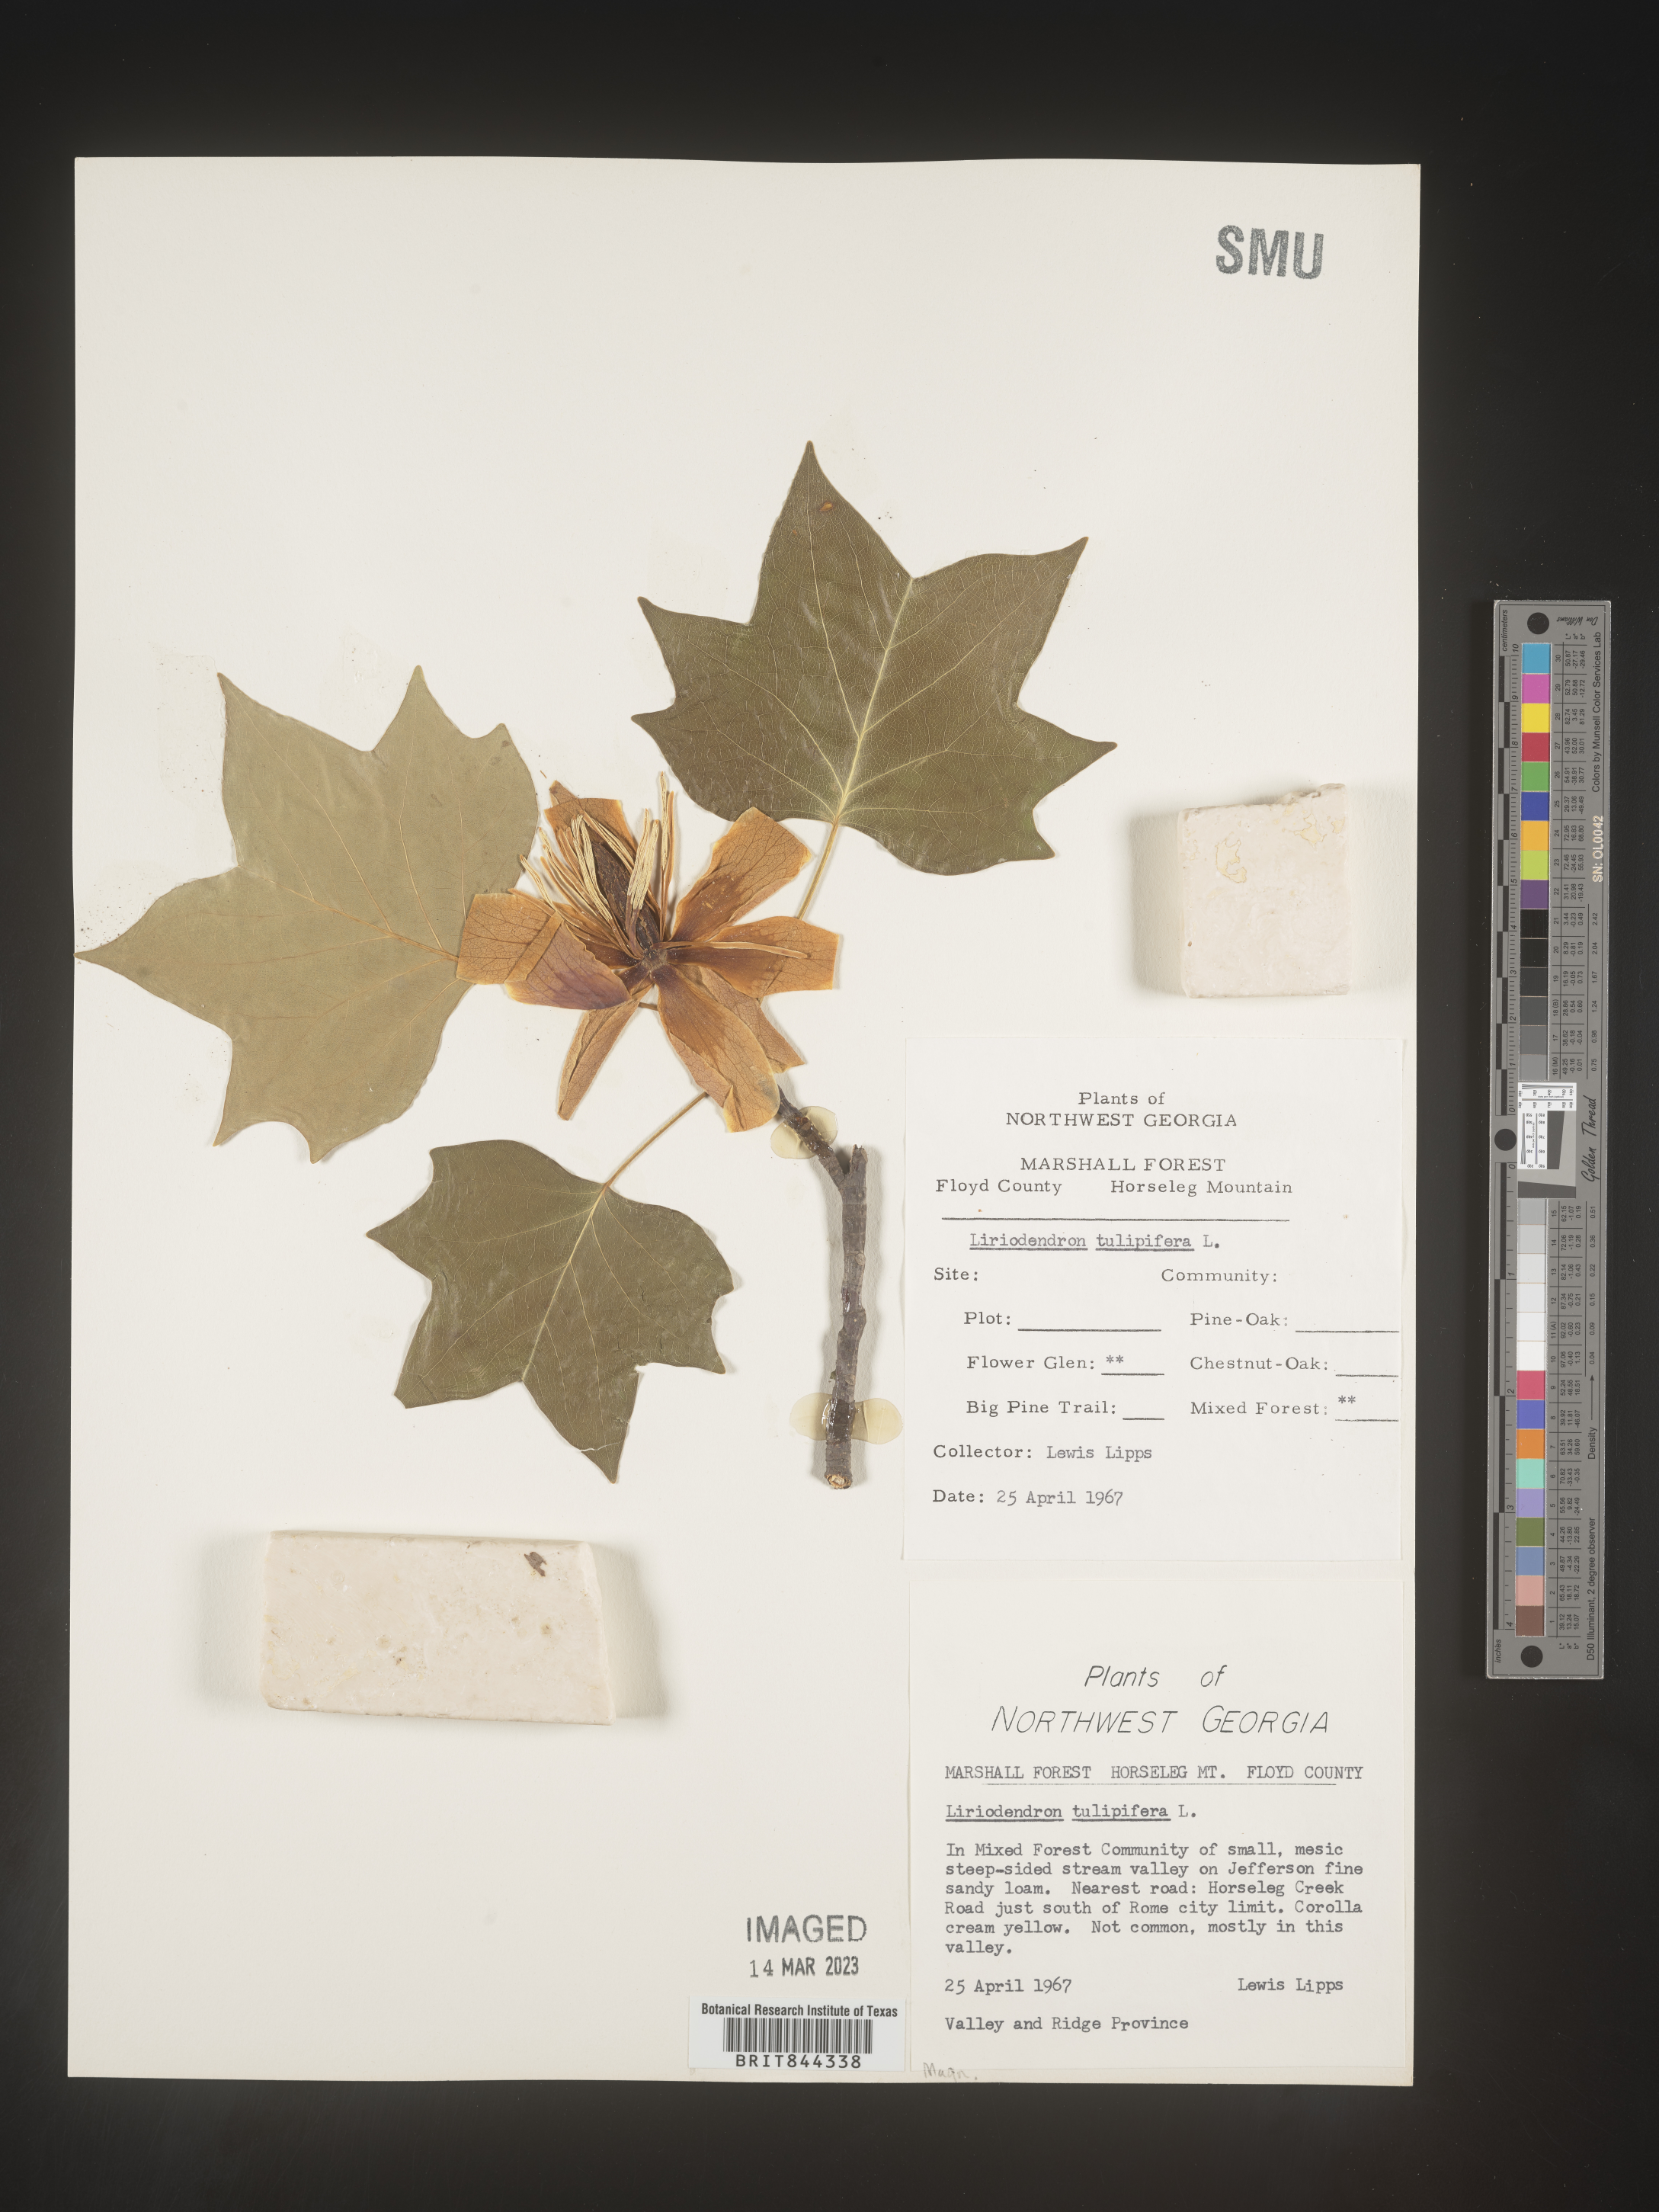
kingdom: Plantae
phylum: Tracheophyta
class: Magnoliopsida
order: Magnoliales
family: Magnoliaceae
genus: Liriodendron
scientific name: Liriodendron tulipifera
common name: Tulip tree
